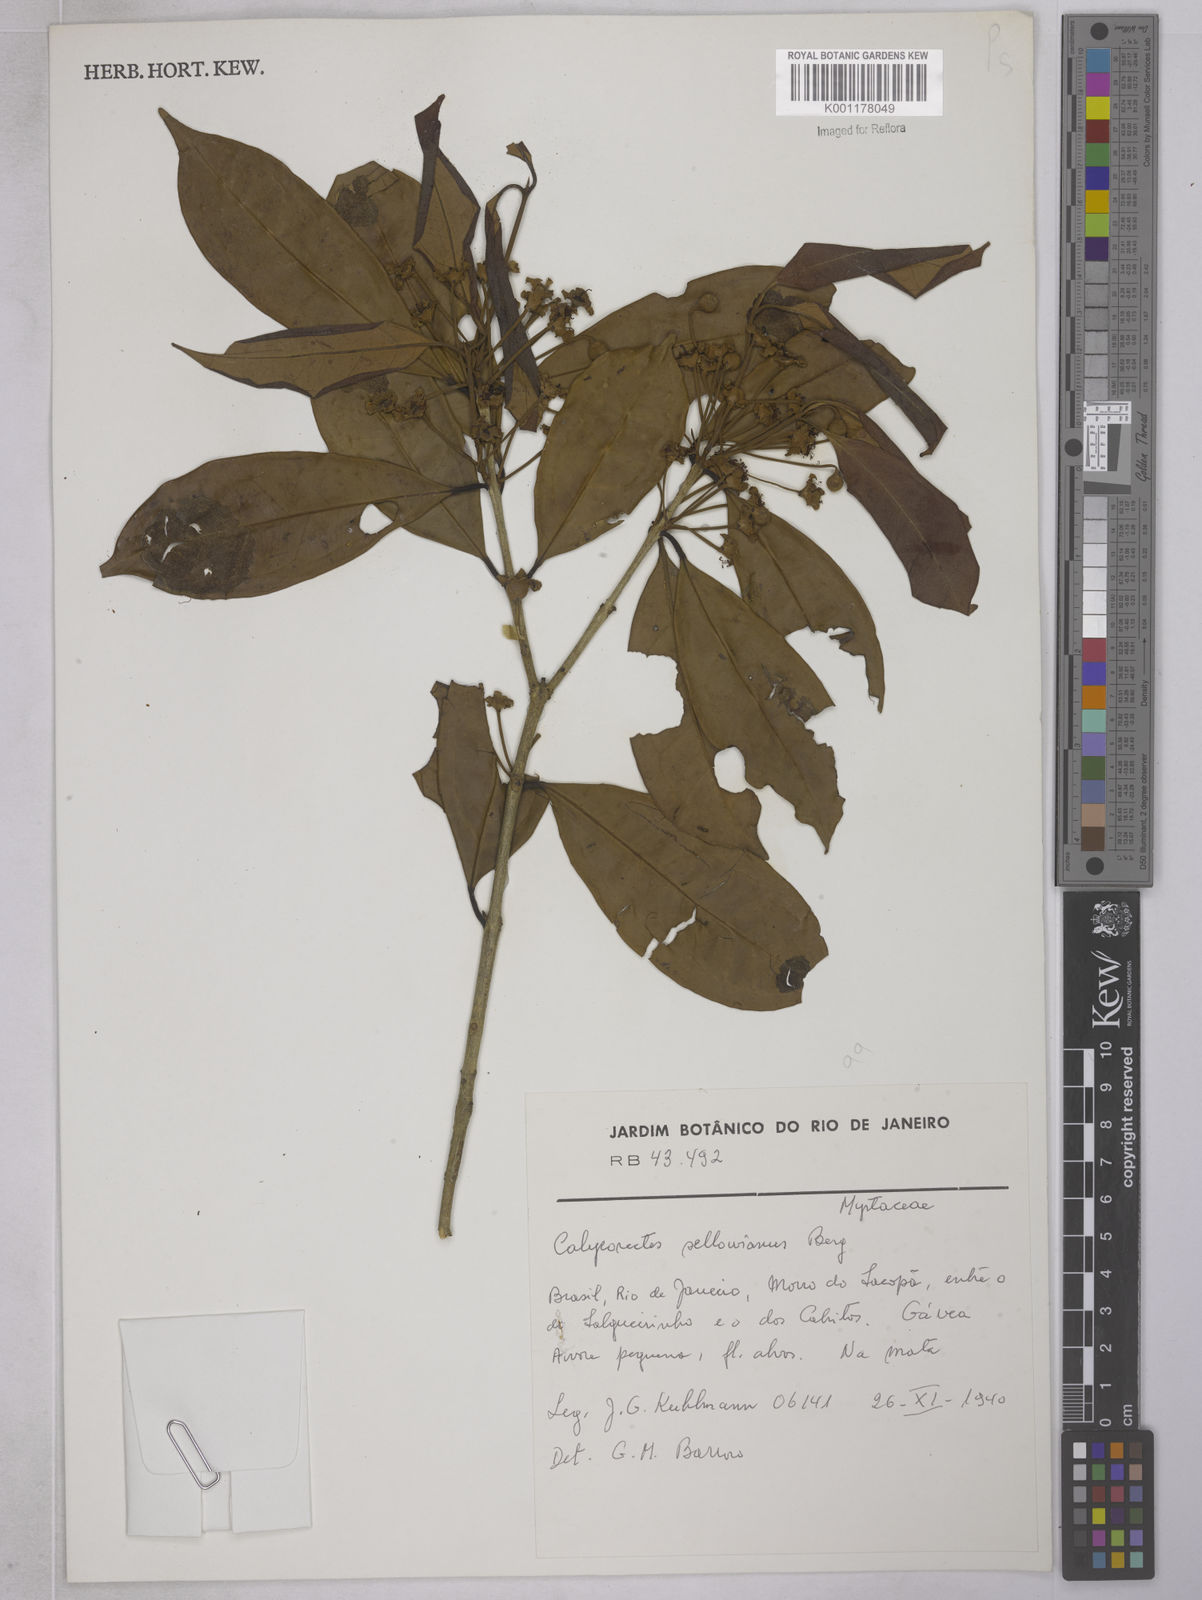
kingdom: Plantae
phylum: Tracheophyta
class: Magnoliopsida
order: Myrtales
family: Myrtaceae
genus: Eugenia
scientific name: Eugenia brevistyla
